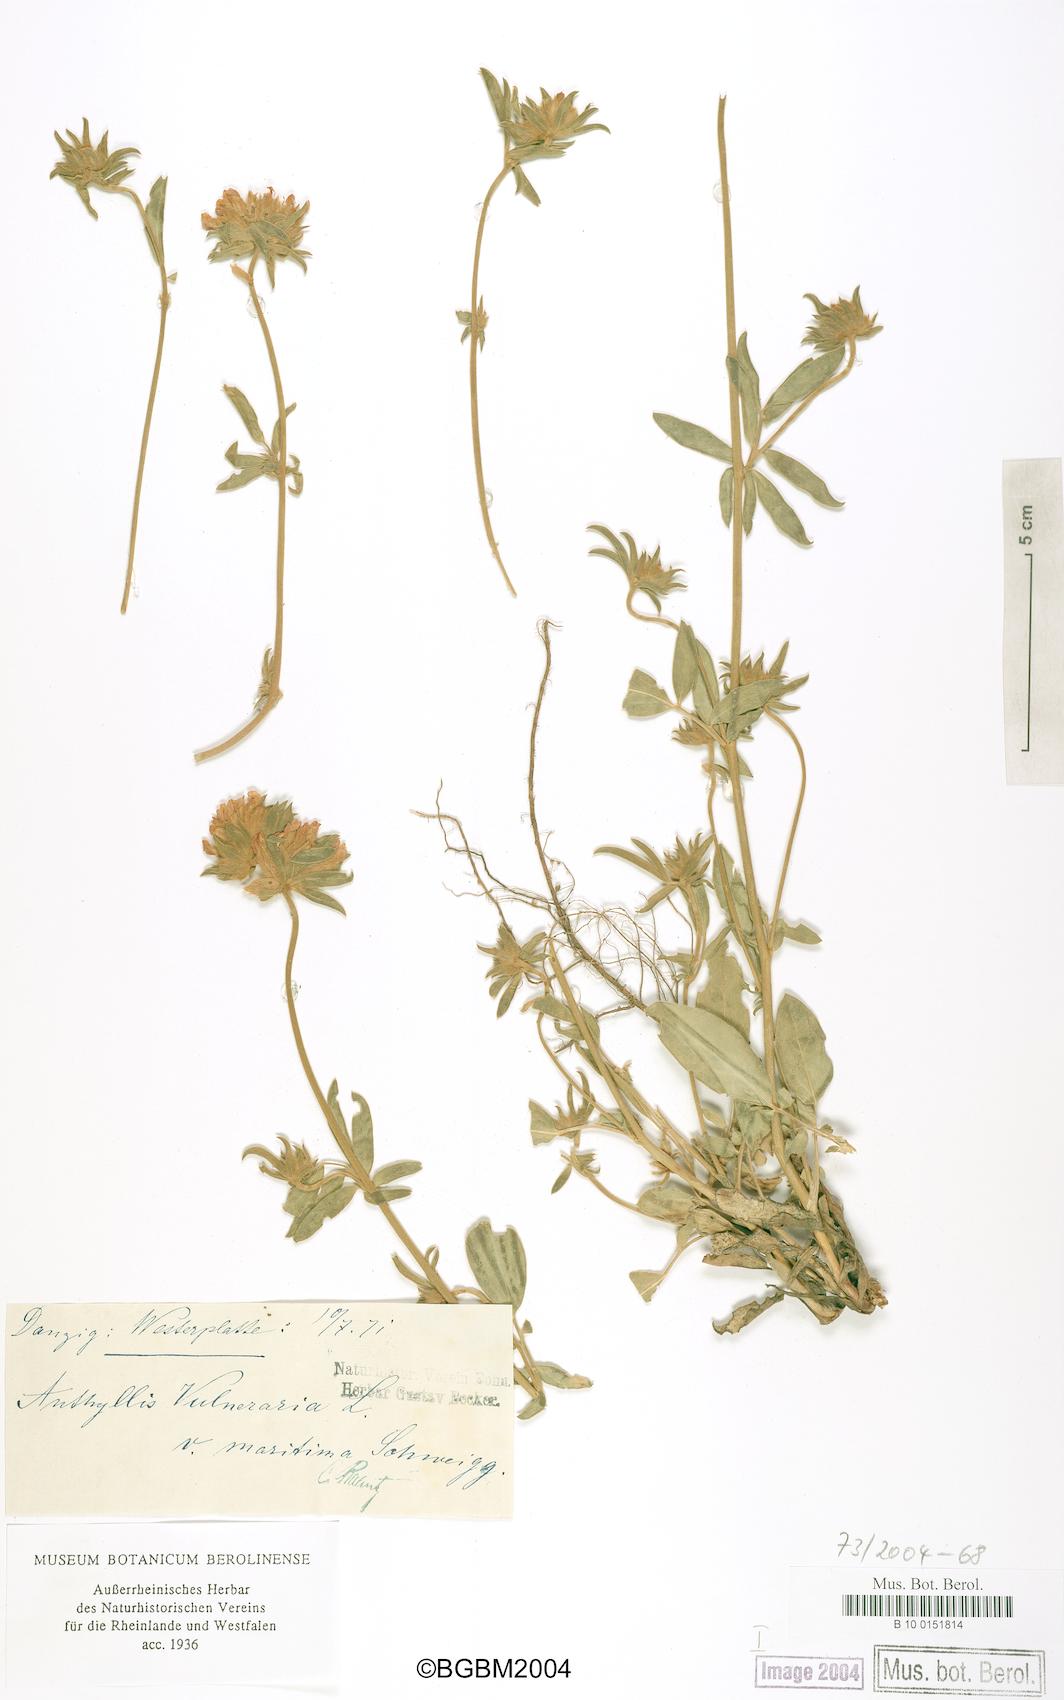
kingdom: Plantae
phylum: Tracheophyta
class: Magnoliopsida
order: Fabales
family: Fabaceae
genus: Anthyllis
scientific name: Anthyllis vulneraria
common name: Kidney vetch
